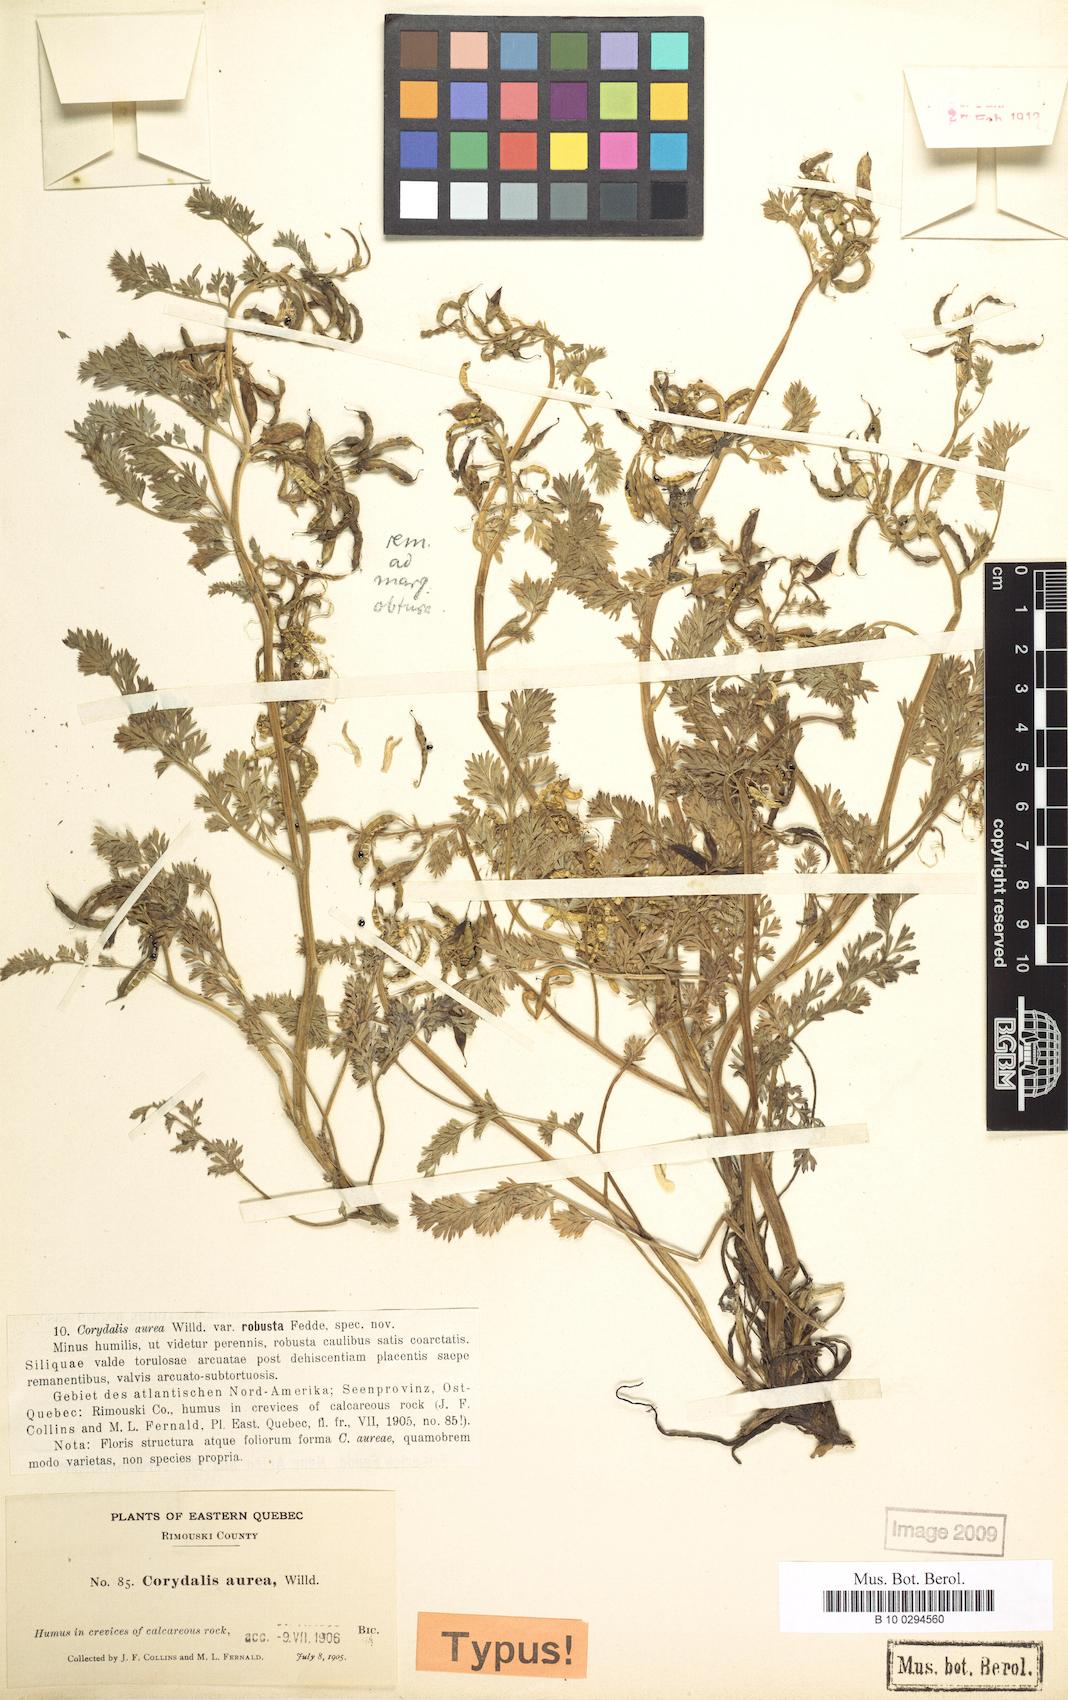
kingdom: Plantae
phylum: Tracheophyta
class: Magnoliopsida
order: Ranunculales
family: Papaveraceae
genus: Corydalis
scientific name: Corydalis aurea
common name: Golden corydalis
